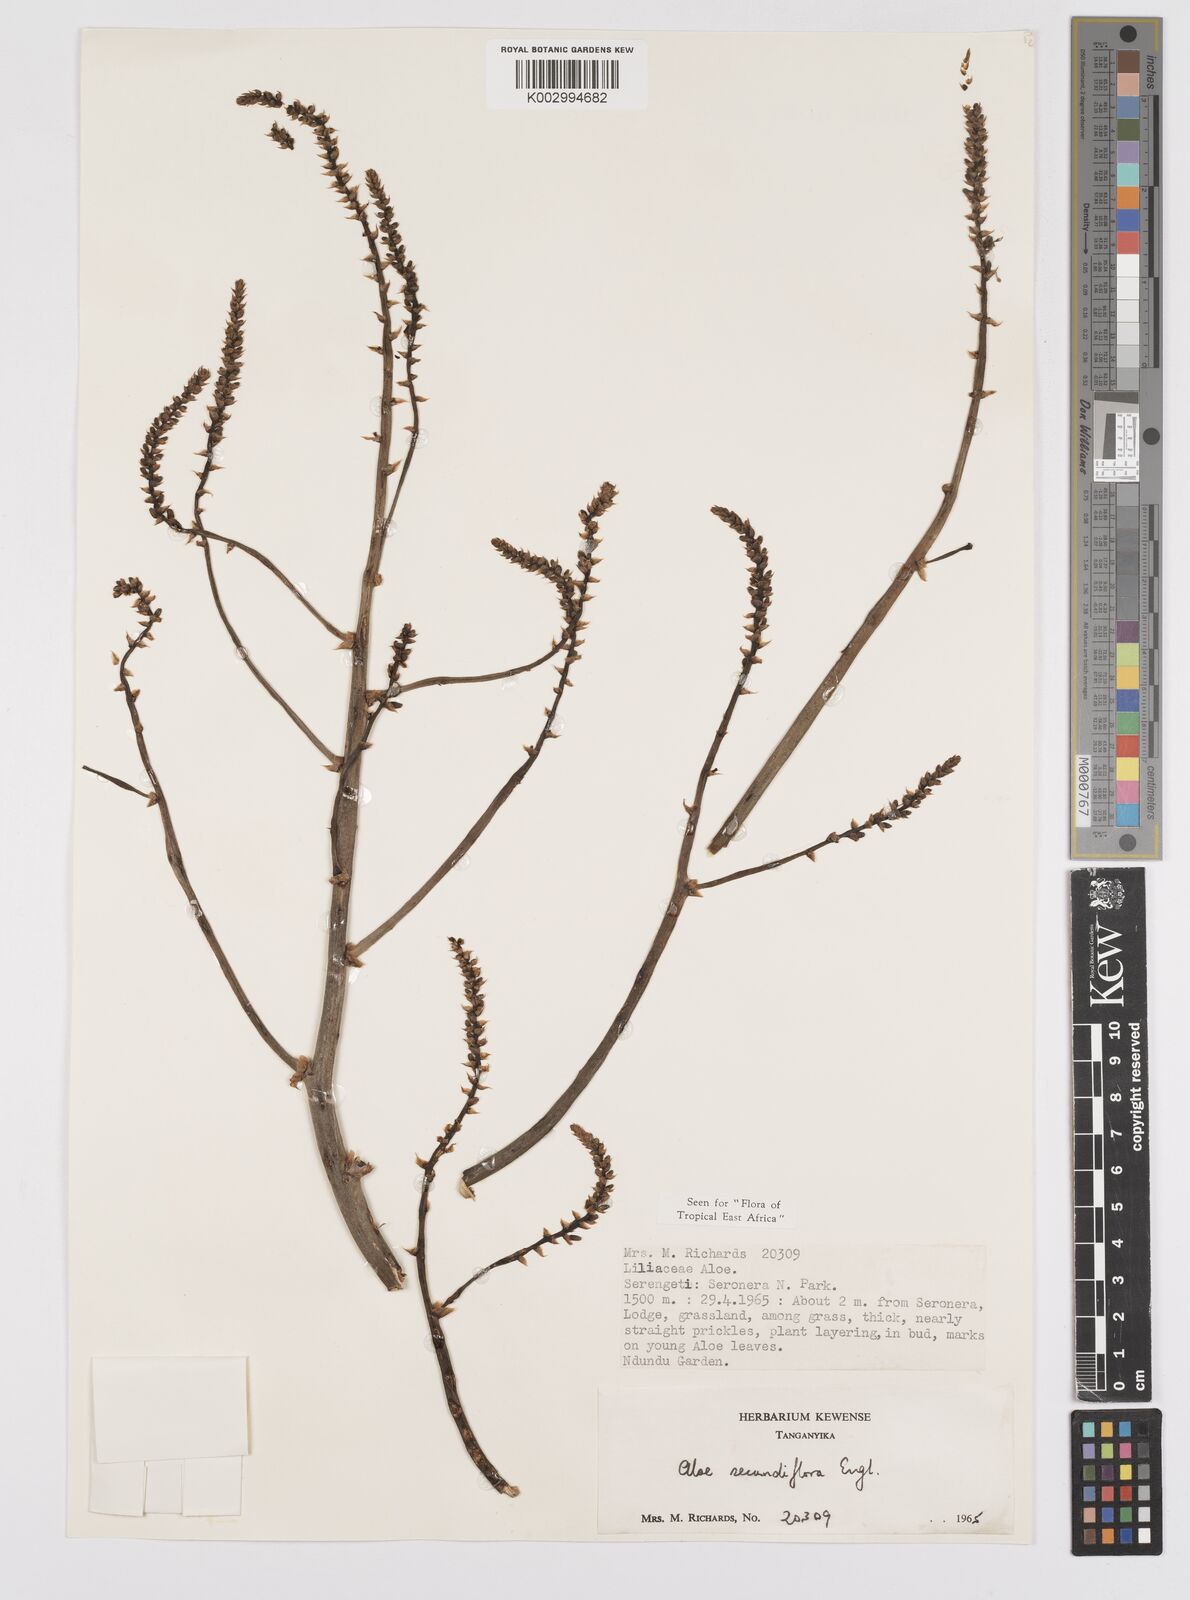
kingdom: Plantae
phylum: Tracheophyta
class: Liliopsida
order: Asparagales
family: Asphodelaceae
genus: Aloe
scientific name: Aloe secundiflora
